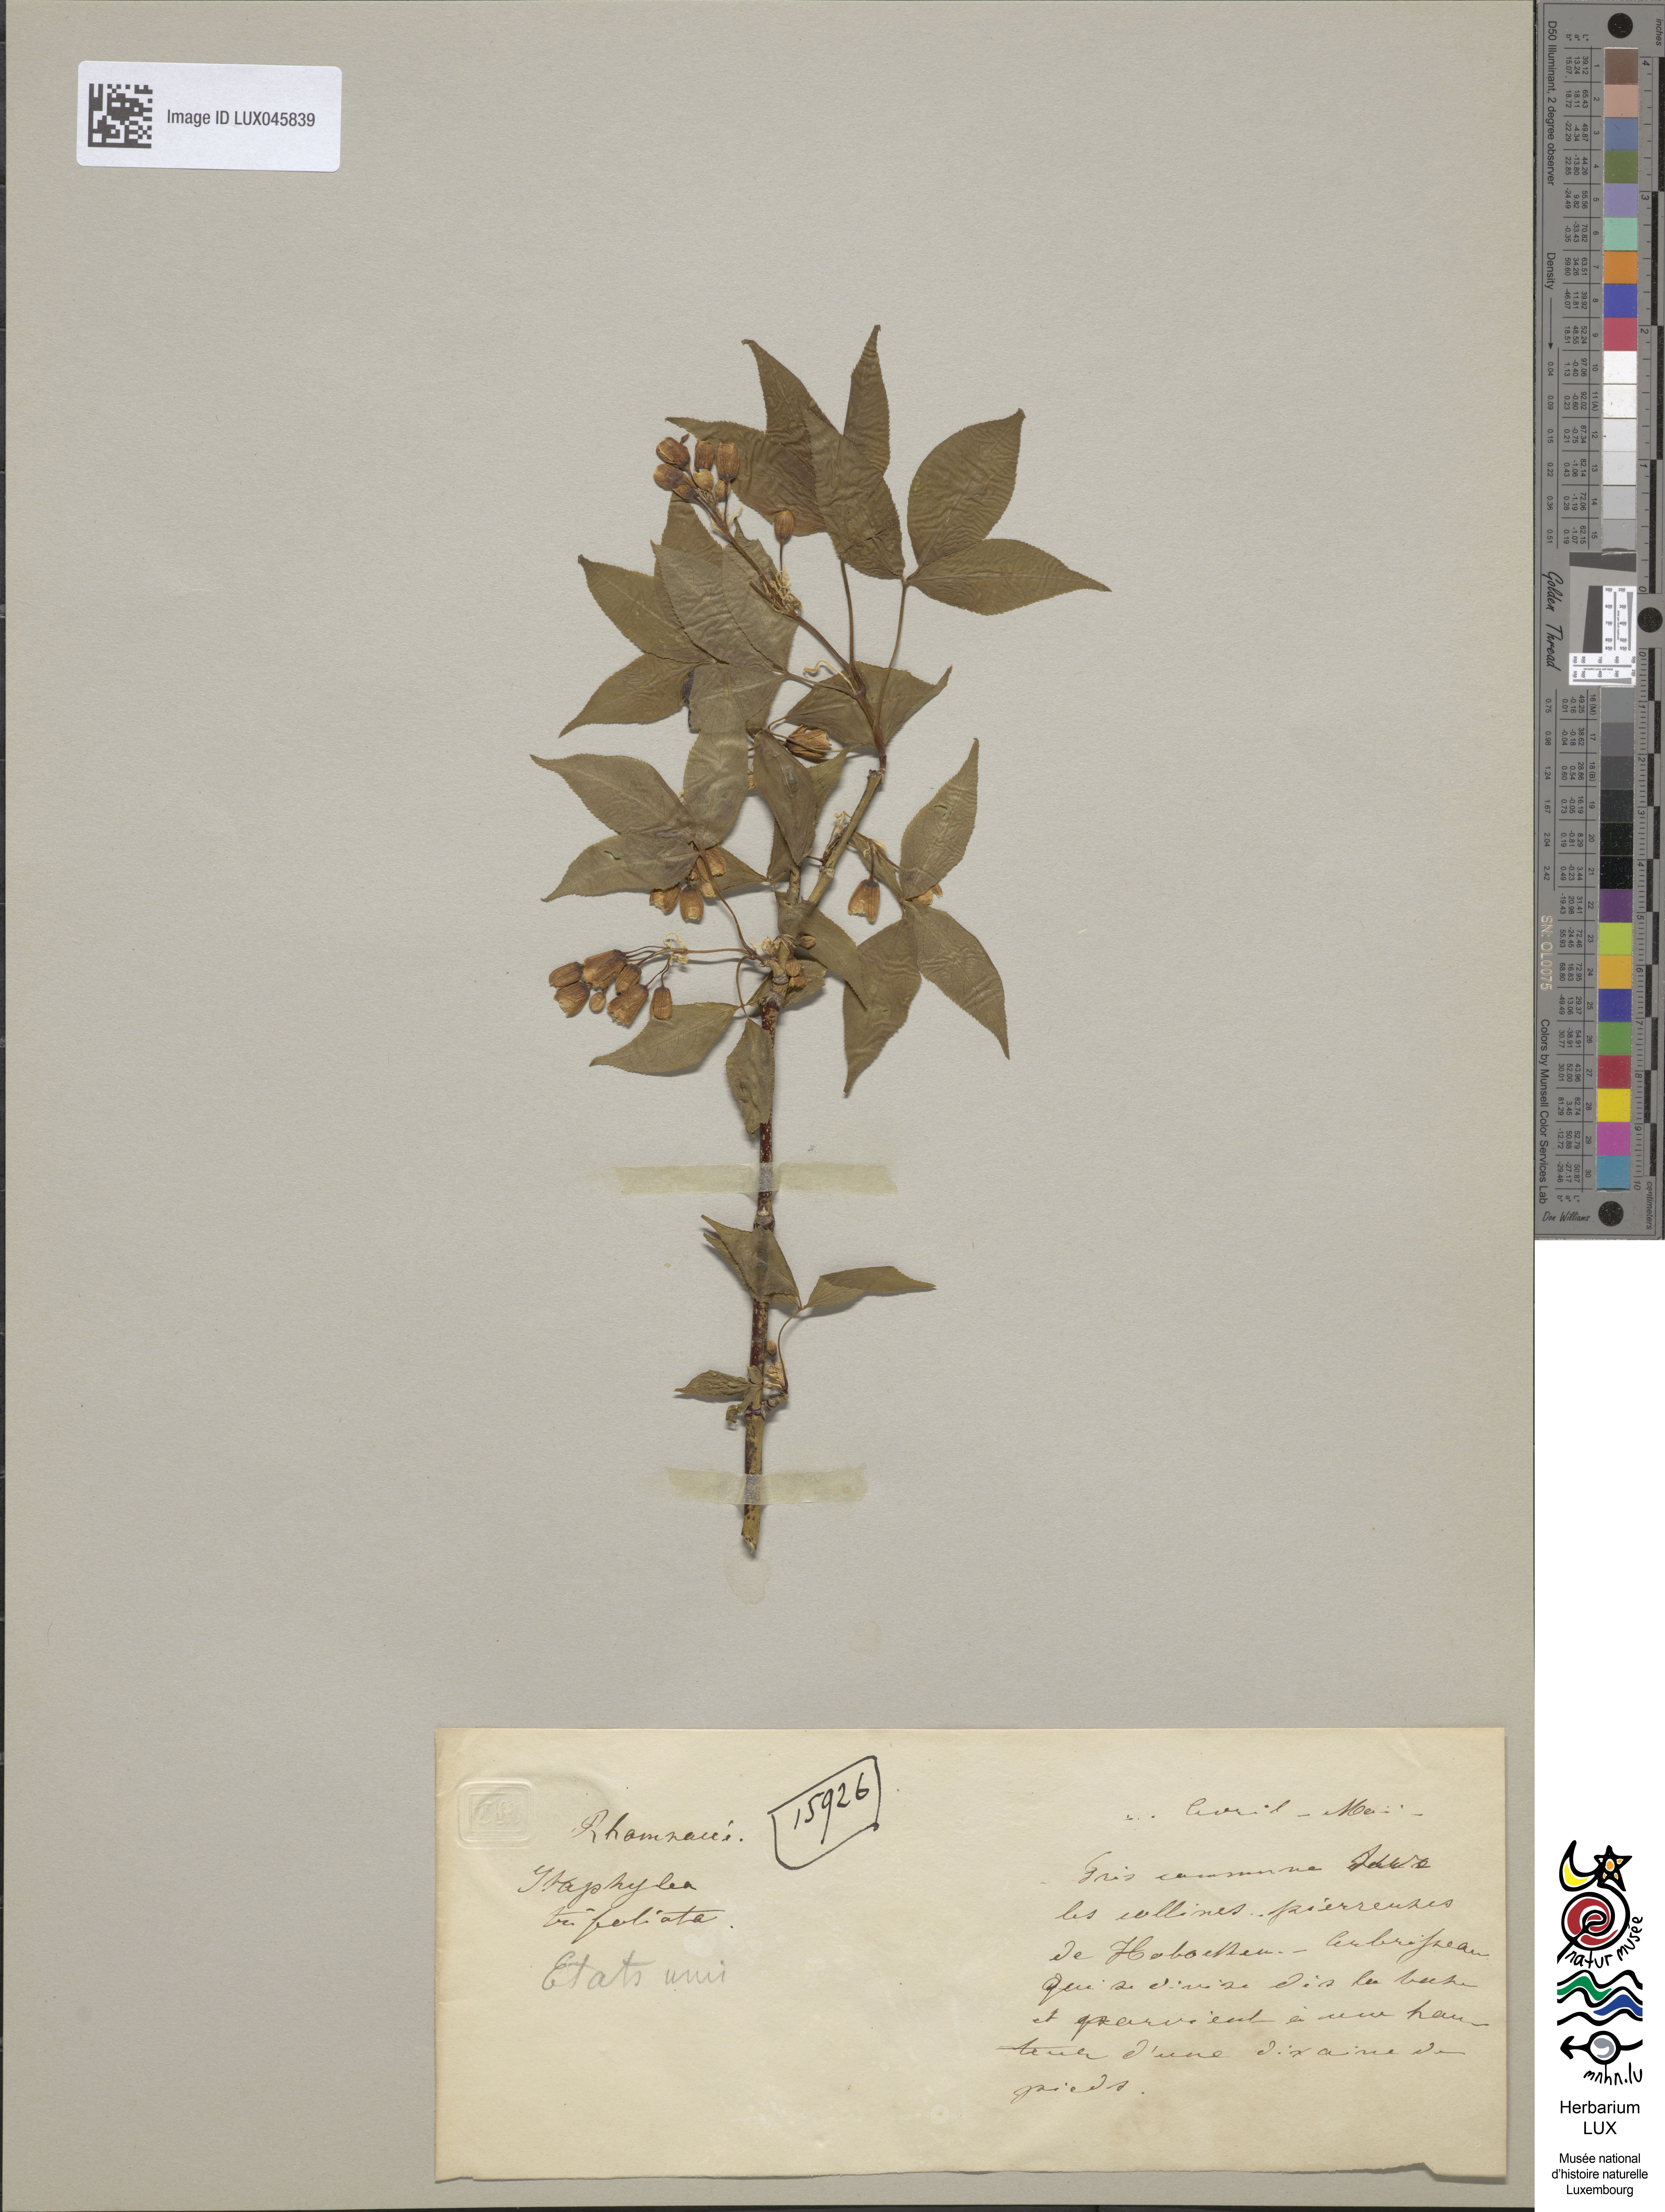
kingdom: Plantae
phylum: Tracheophyta
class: Magnoliopsida
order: Crossosomatales
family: Staphyleaceae
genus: Staphylea
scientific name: Staphylea trifolia
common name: American bladdernut
